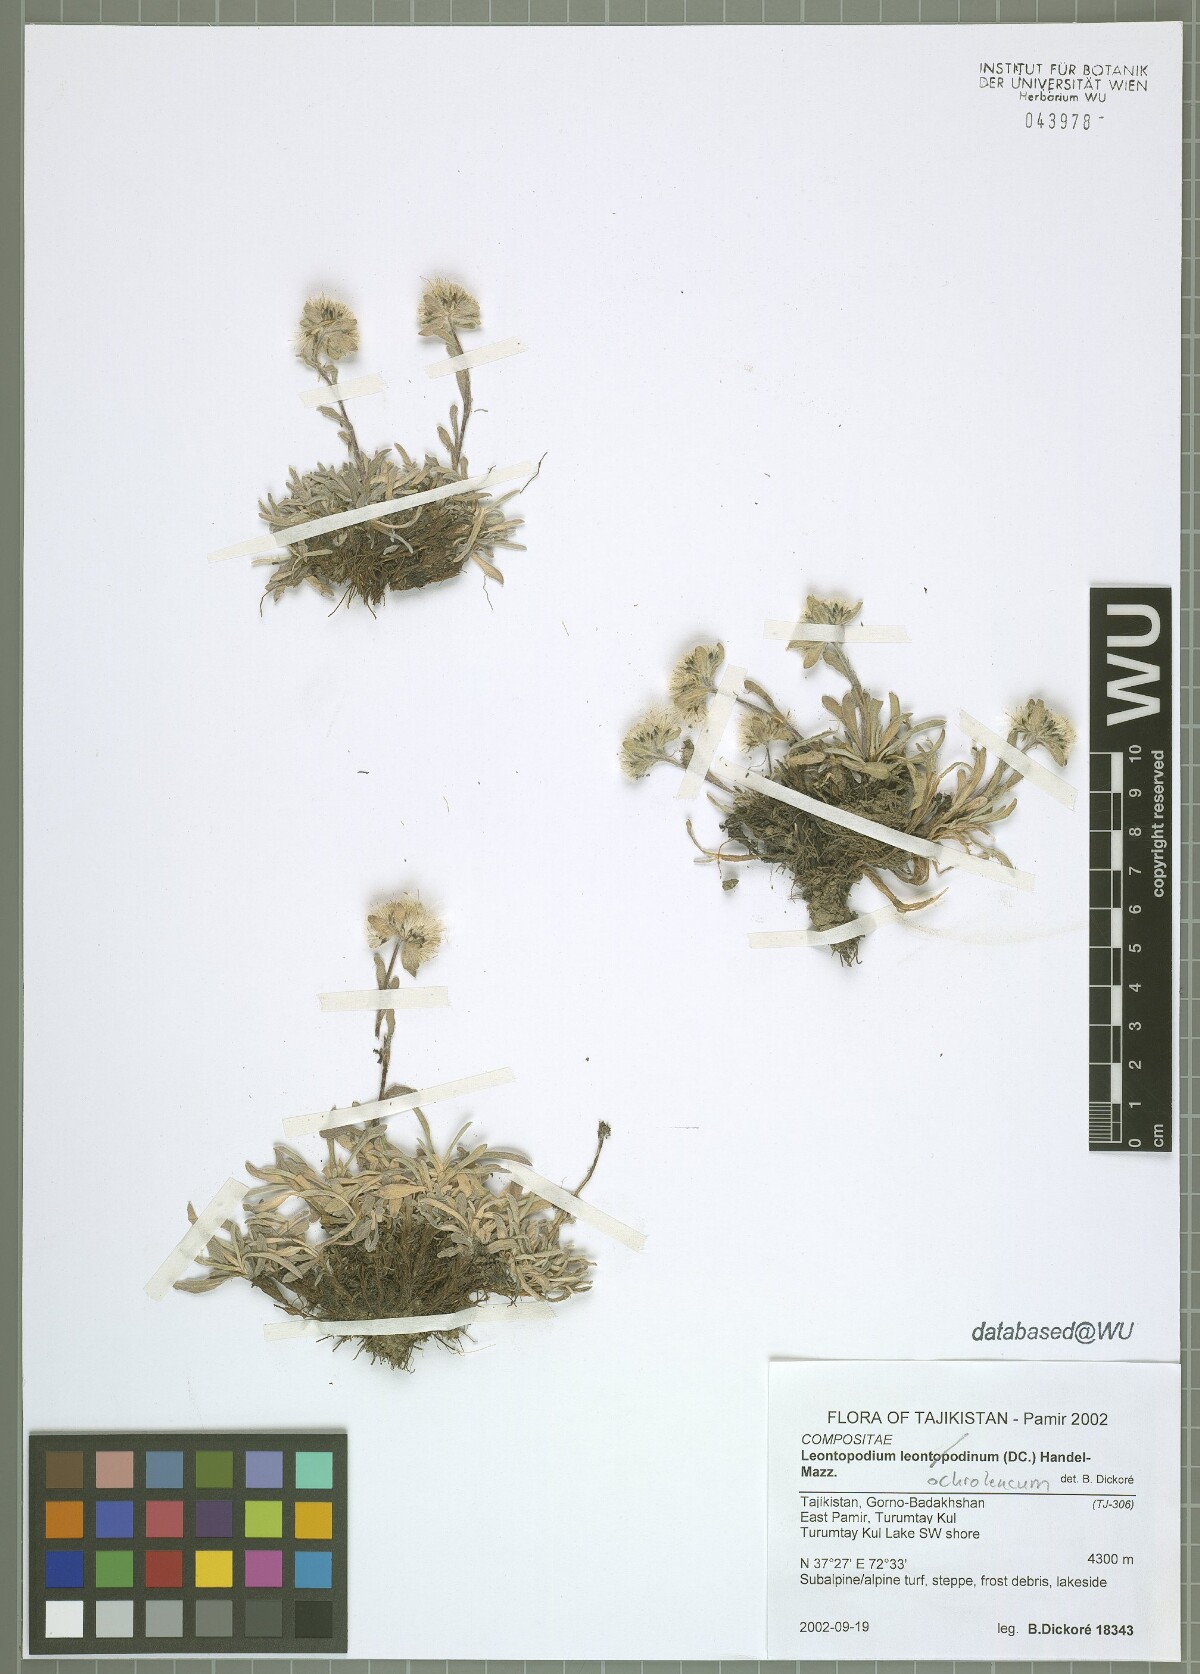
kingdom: Plantae
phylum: Tracheophyta
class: Magnoliopsida
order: Asterales
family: Asteraceae
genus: Leontopodium
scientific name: Leontopodium leontopodinum
